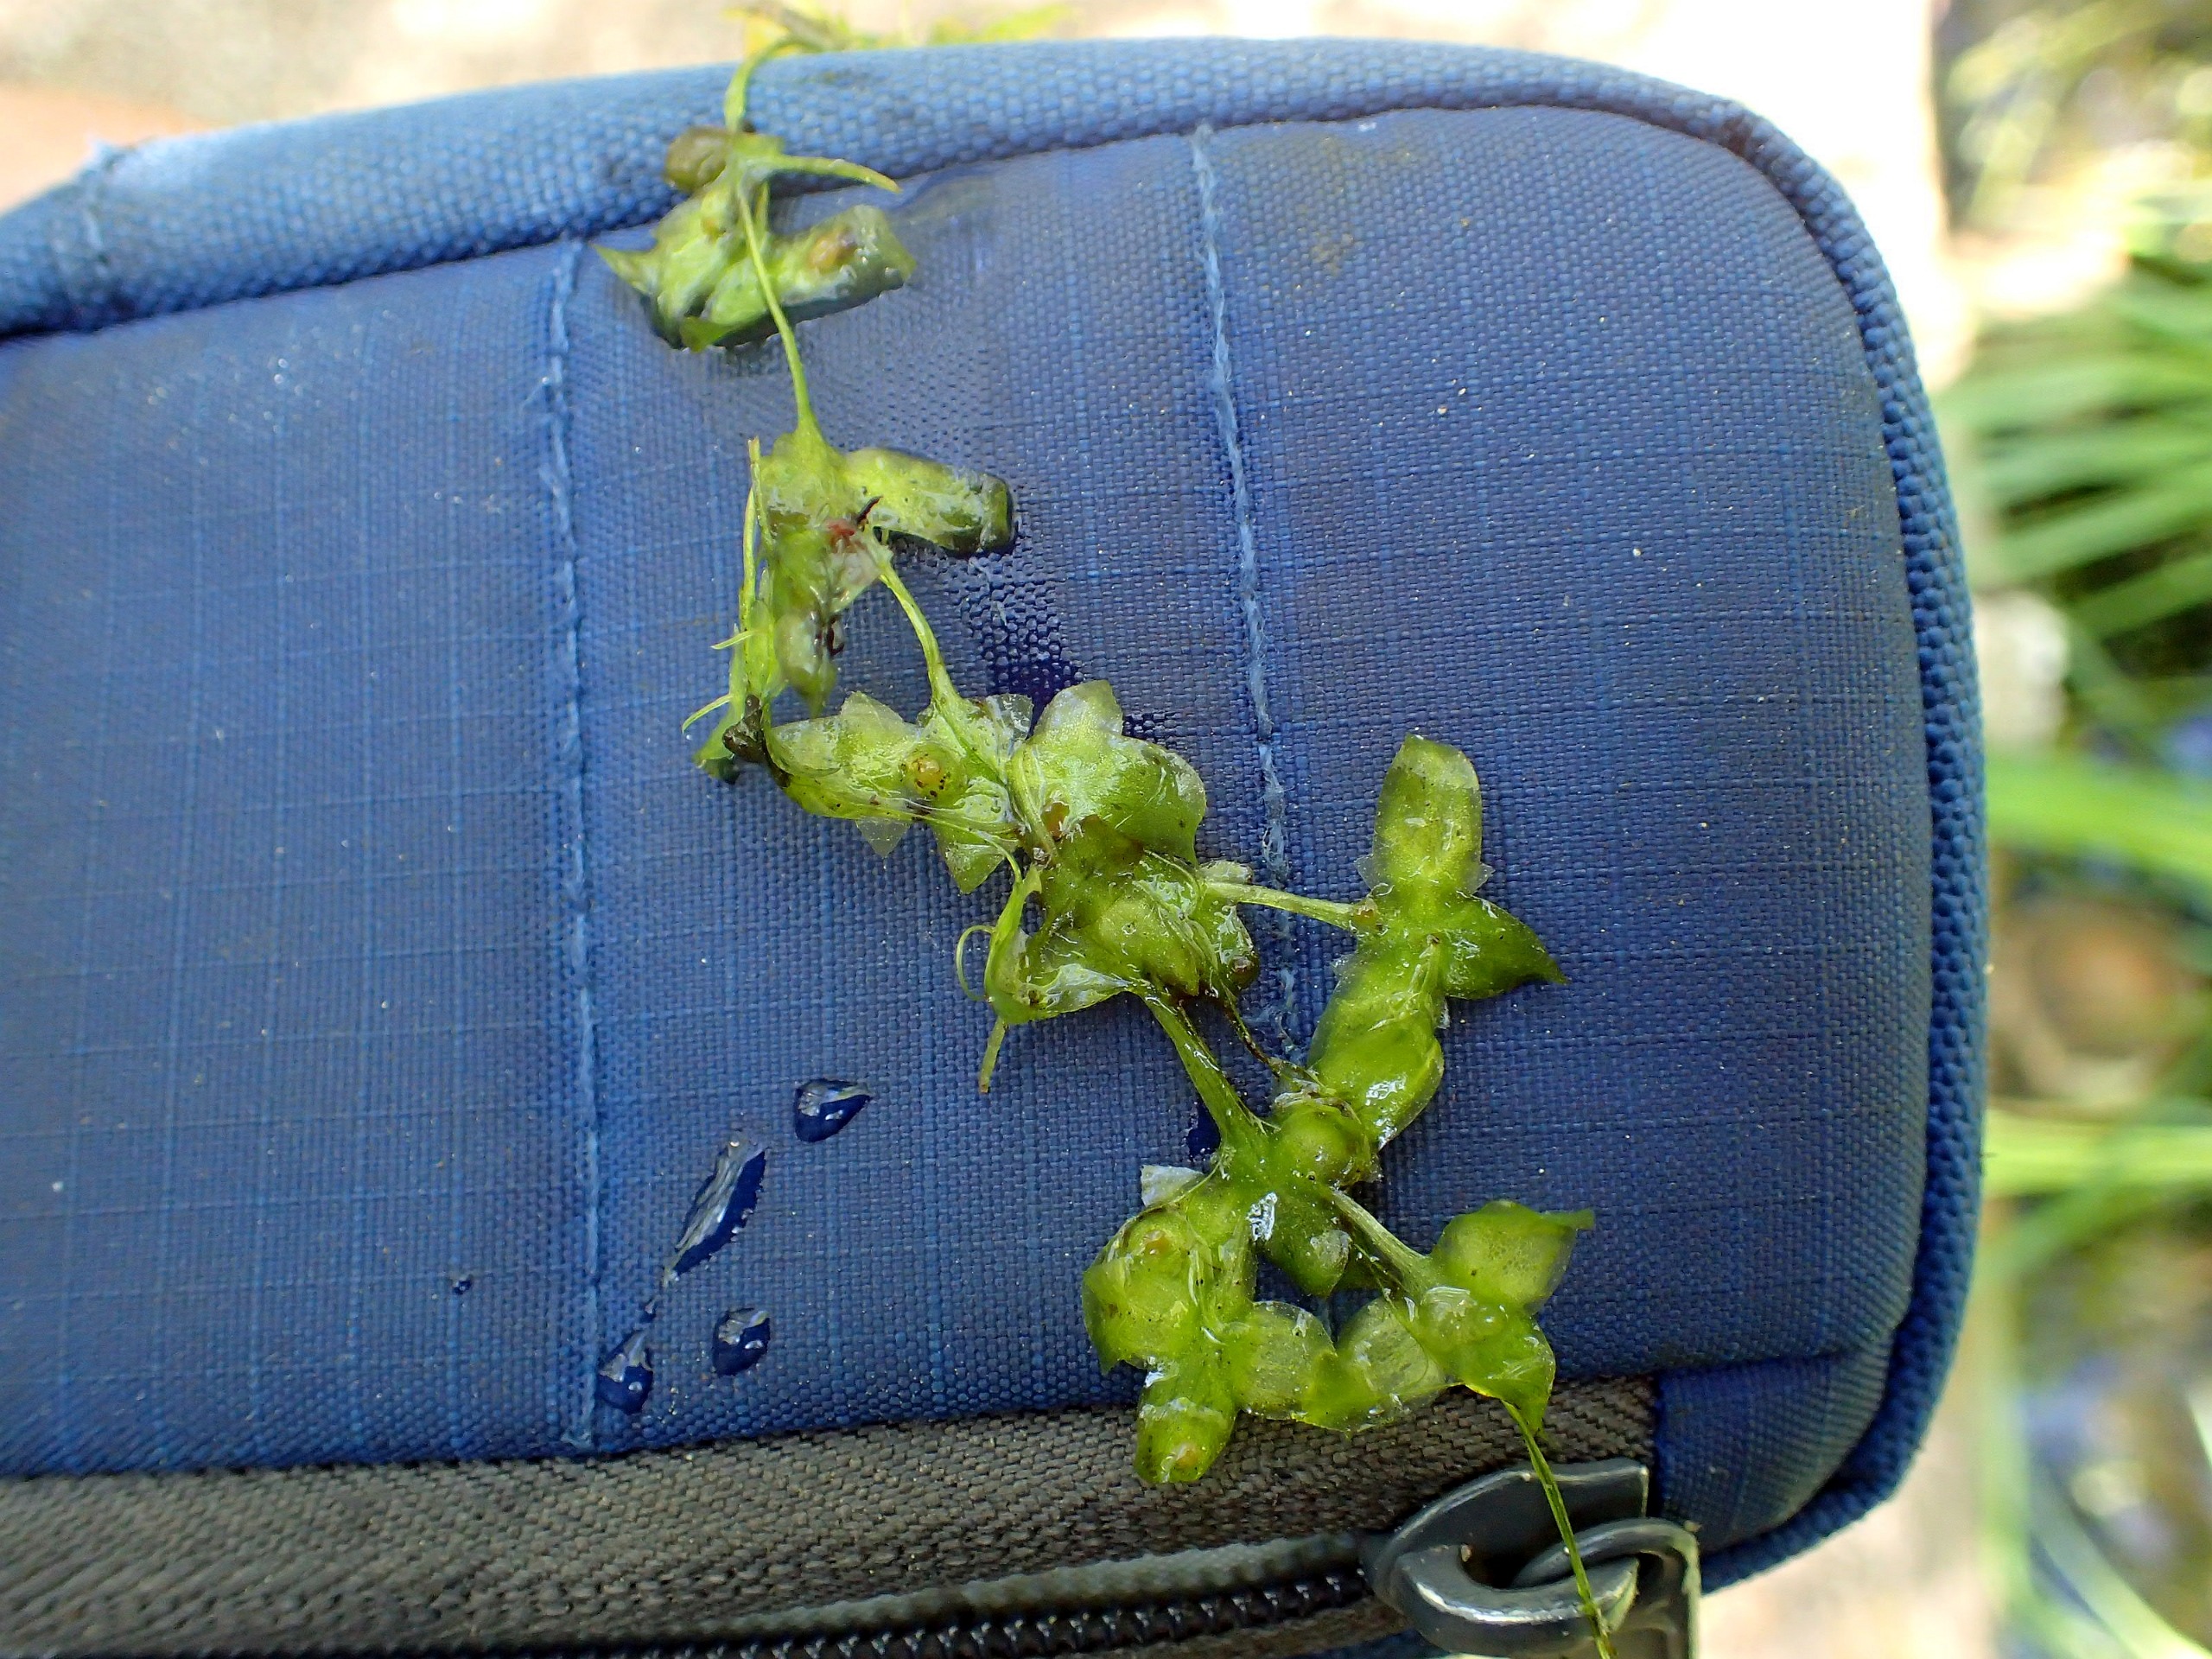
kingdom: Plantae
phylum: Tracheophyta
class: Liliopsida
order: Alismatales
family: Araceae
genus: Lemna
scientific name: Lemna trisulca
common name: Kors-andemad
